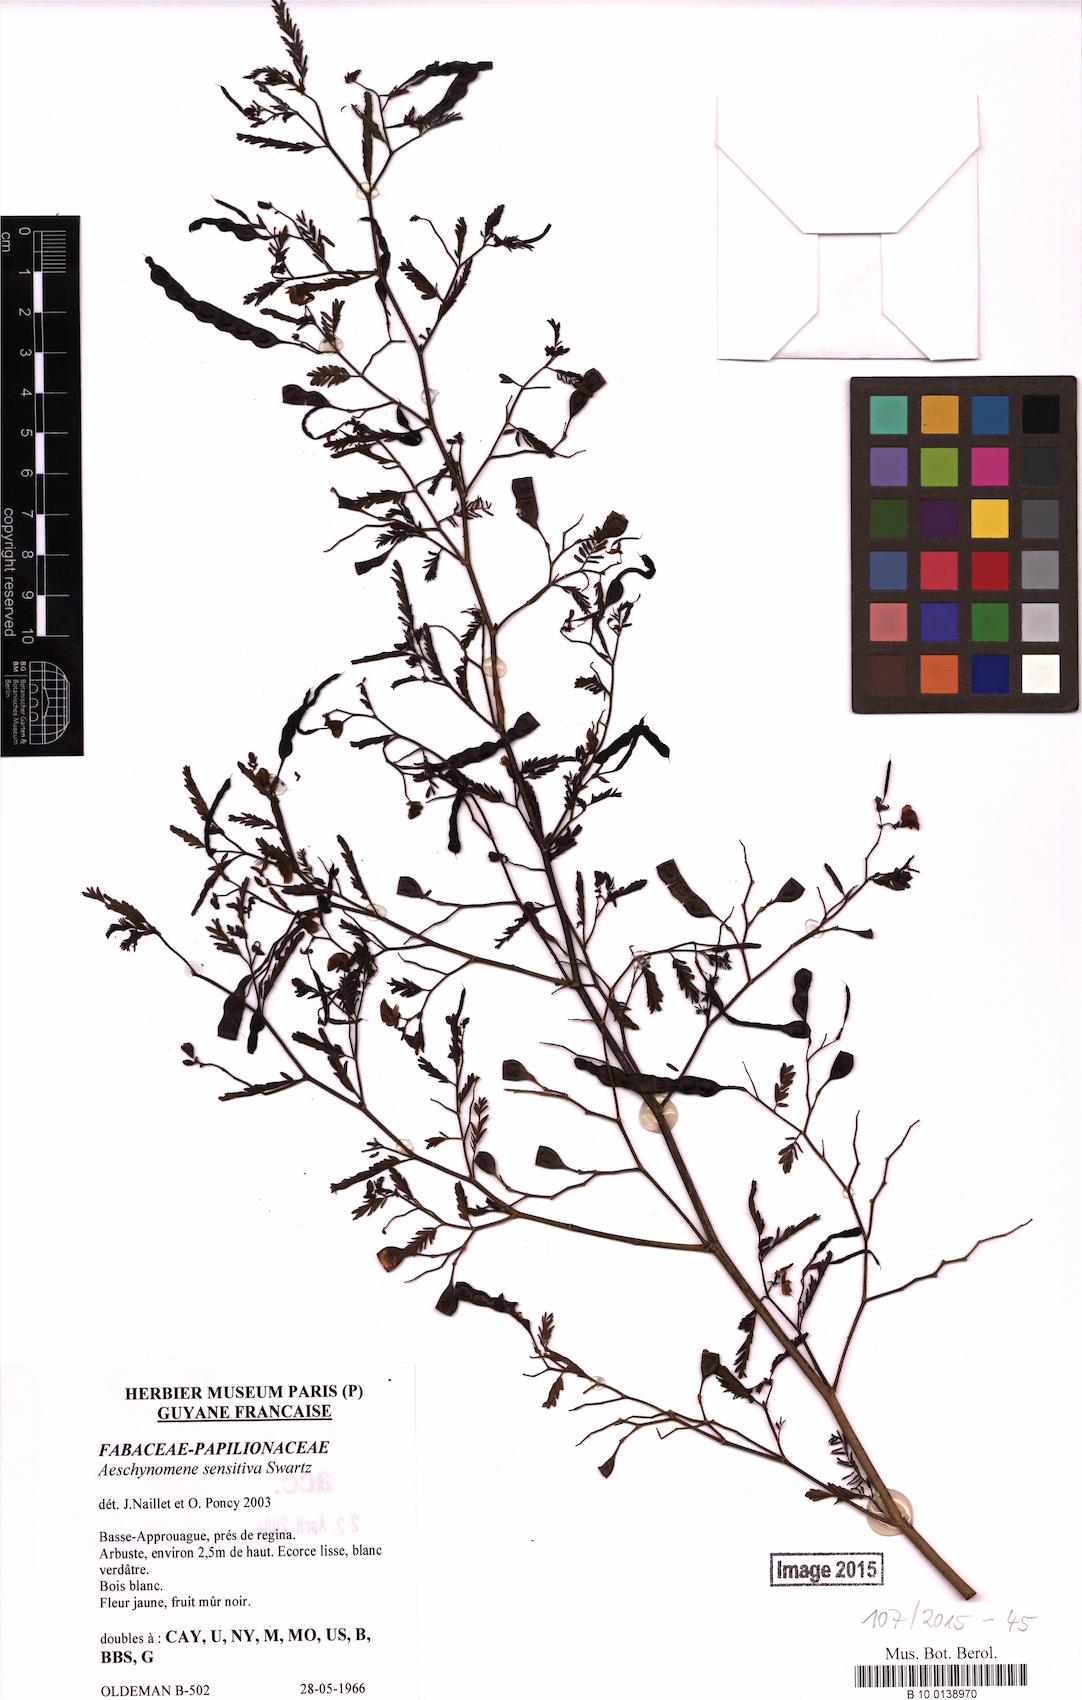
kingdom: Plantae
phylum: Tracheophyta
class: Magnoliopsida
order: Fabales
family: Fabaceae
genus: Aeschynomene
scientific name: Aeschynomene sensitiva
